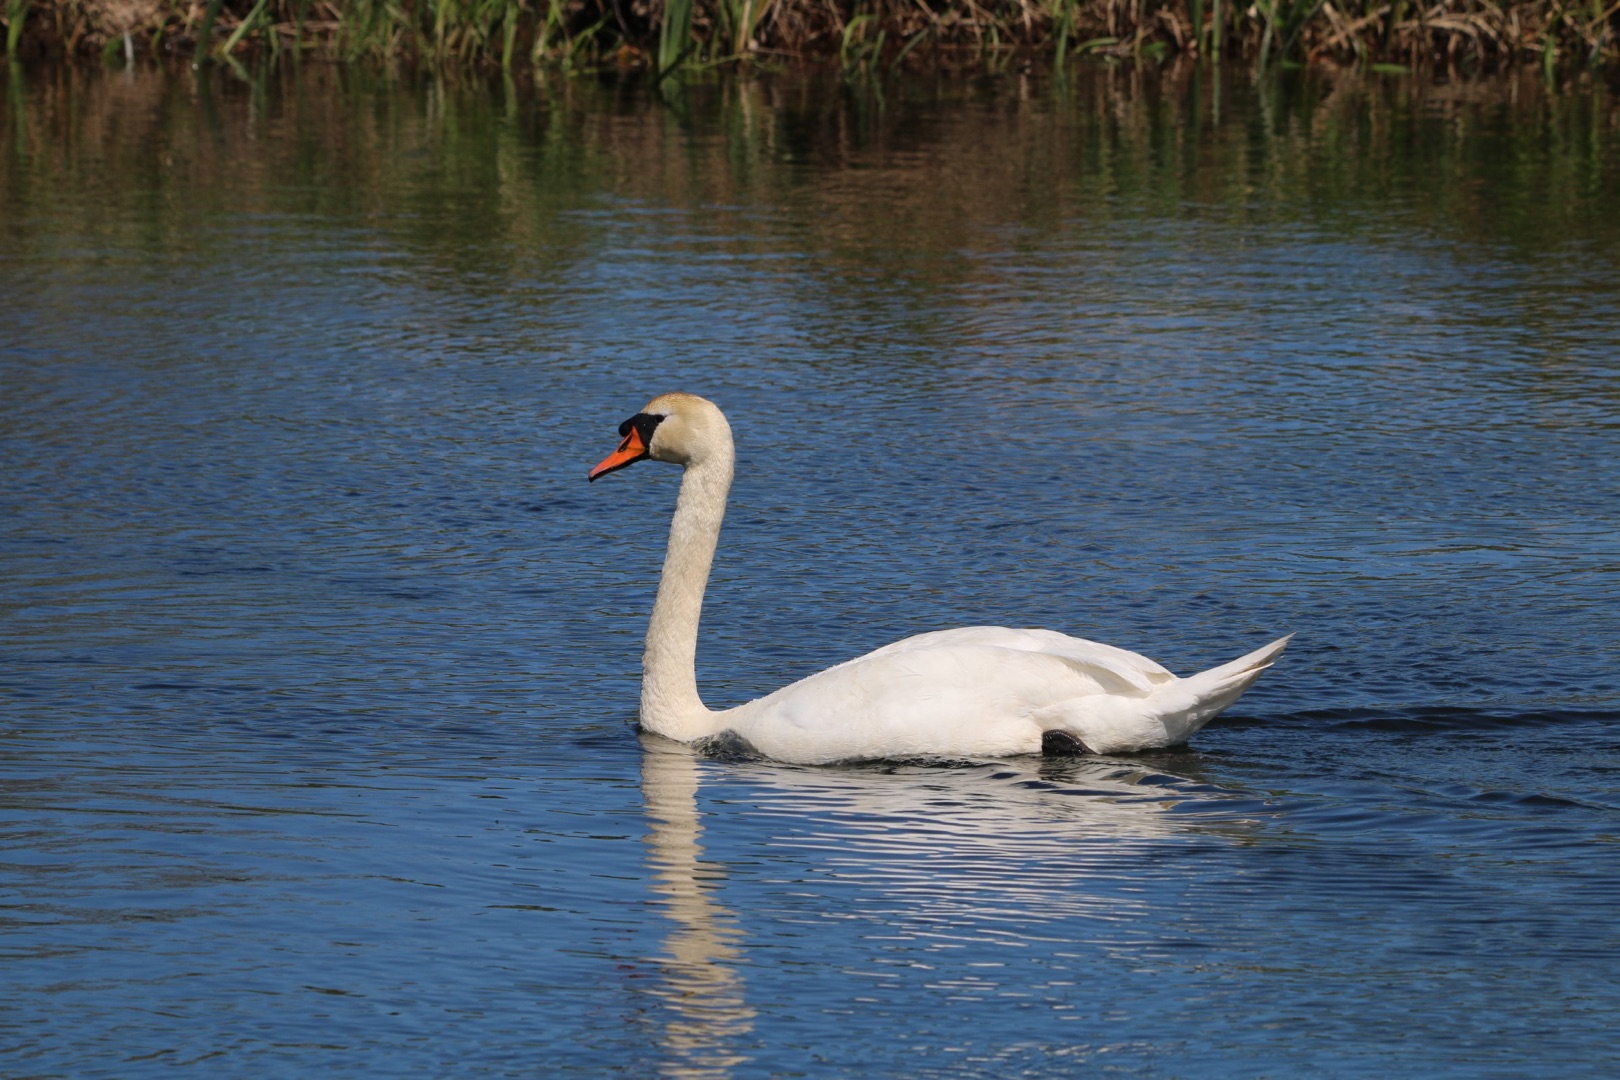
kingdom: Animalia
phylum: Chordata
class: Aves
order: Anseriformes
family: Anatidae
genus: Cygnus
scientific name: Cygnus olor
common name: Knopsvane
